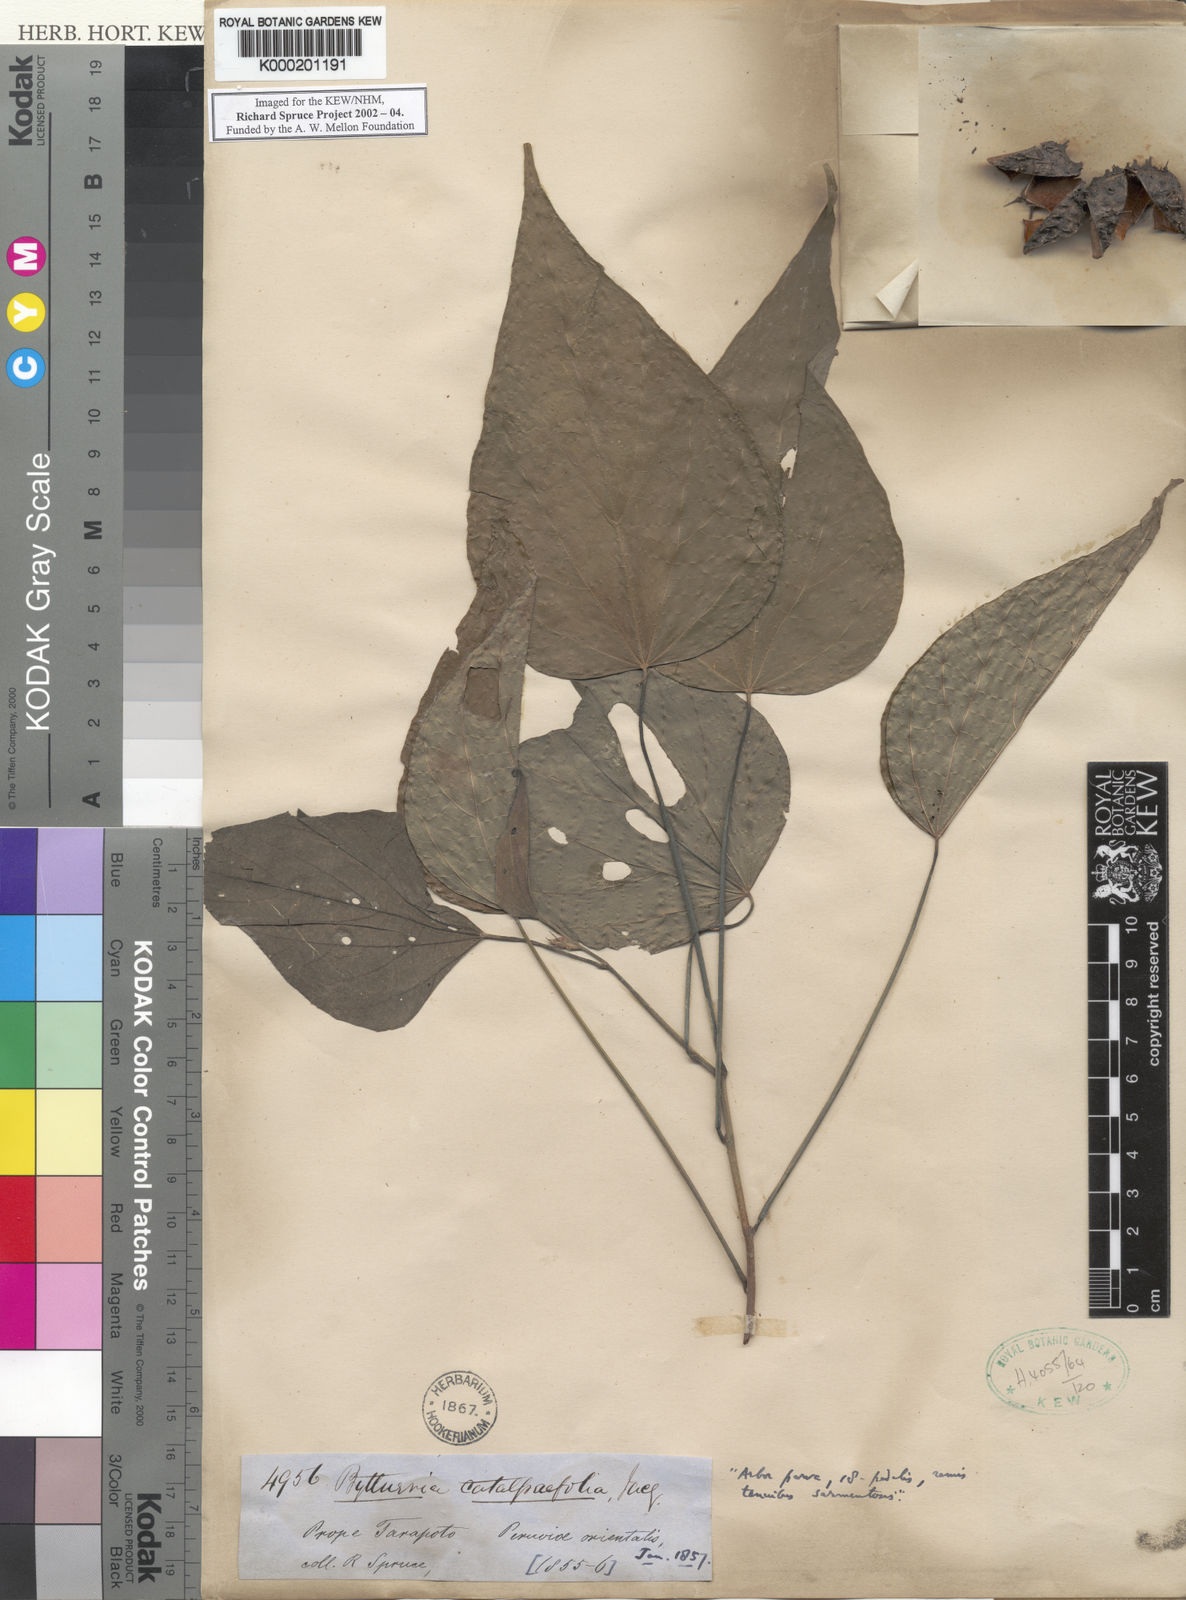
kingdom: Plantae
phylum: Tracheophyta
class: Magnoliopsida
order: Malvales
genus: Buettneria
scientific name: Buettneria
